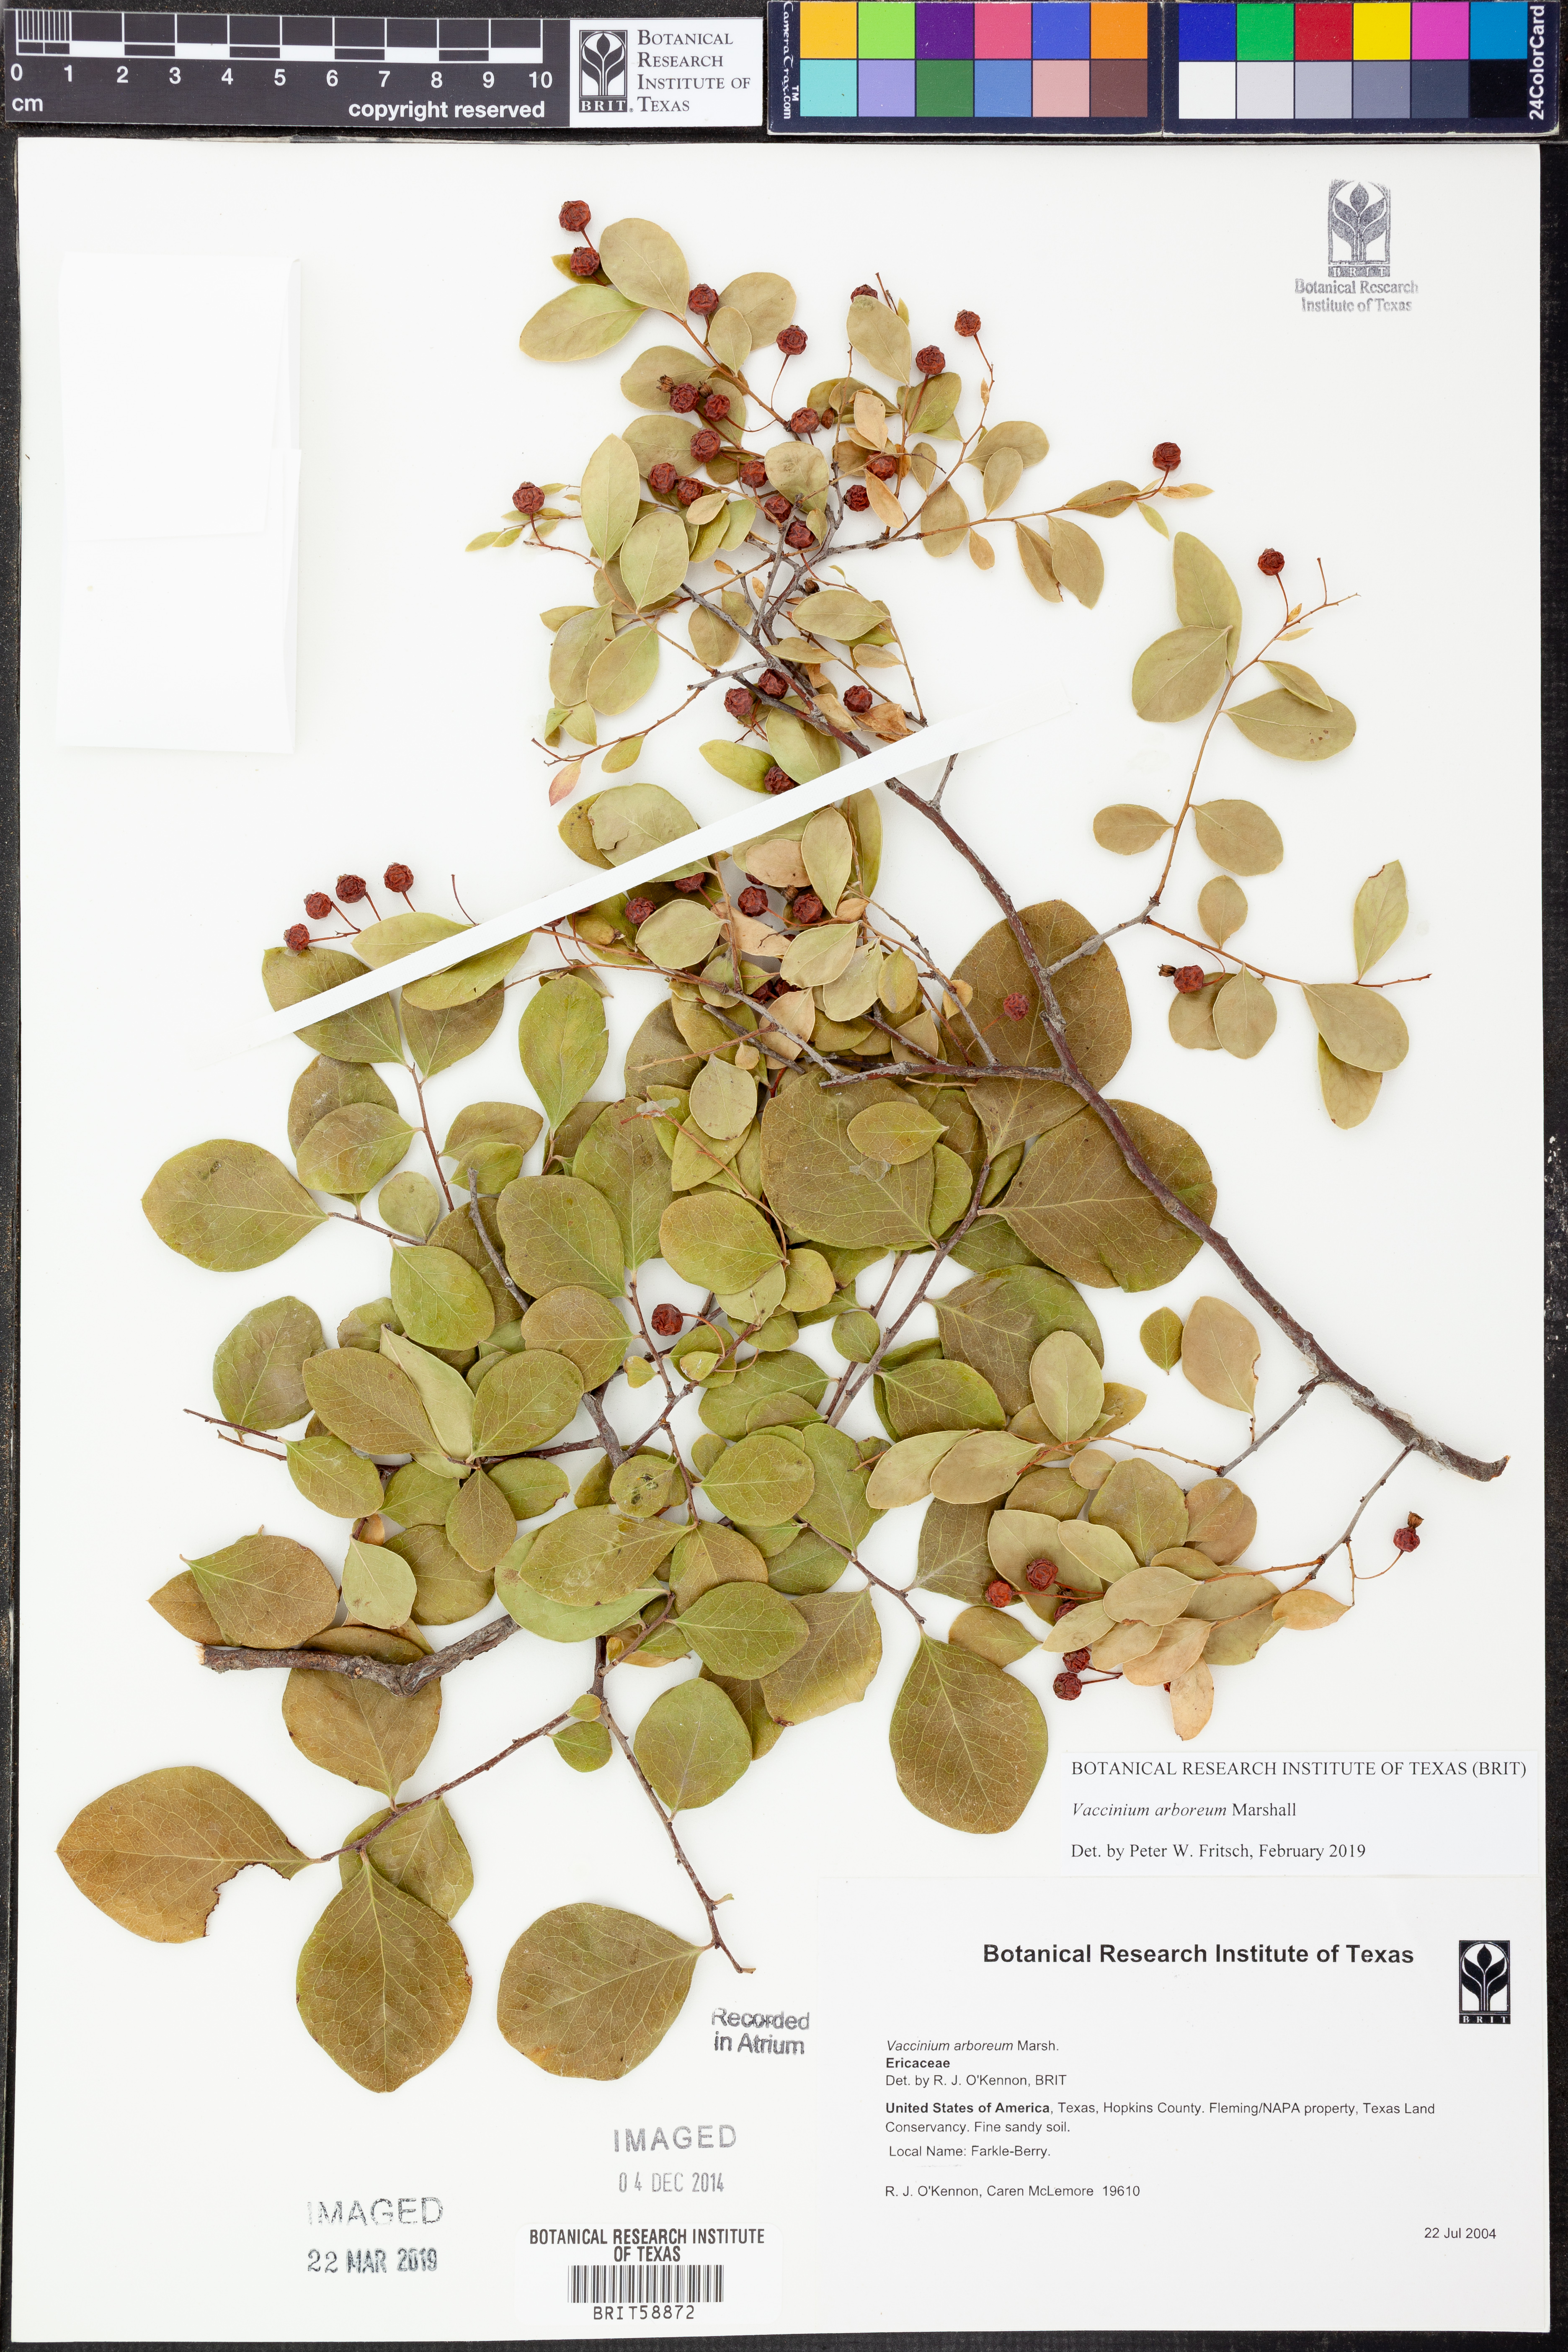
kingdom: Plantae
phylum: Tracheophyta
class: Magnoliopsida
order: Ericales
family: Ericaceae
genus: Vaccinium
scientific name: Vaccinium arboreum
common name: Farkleberry
